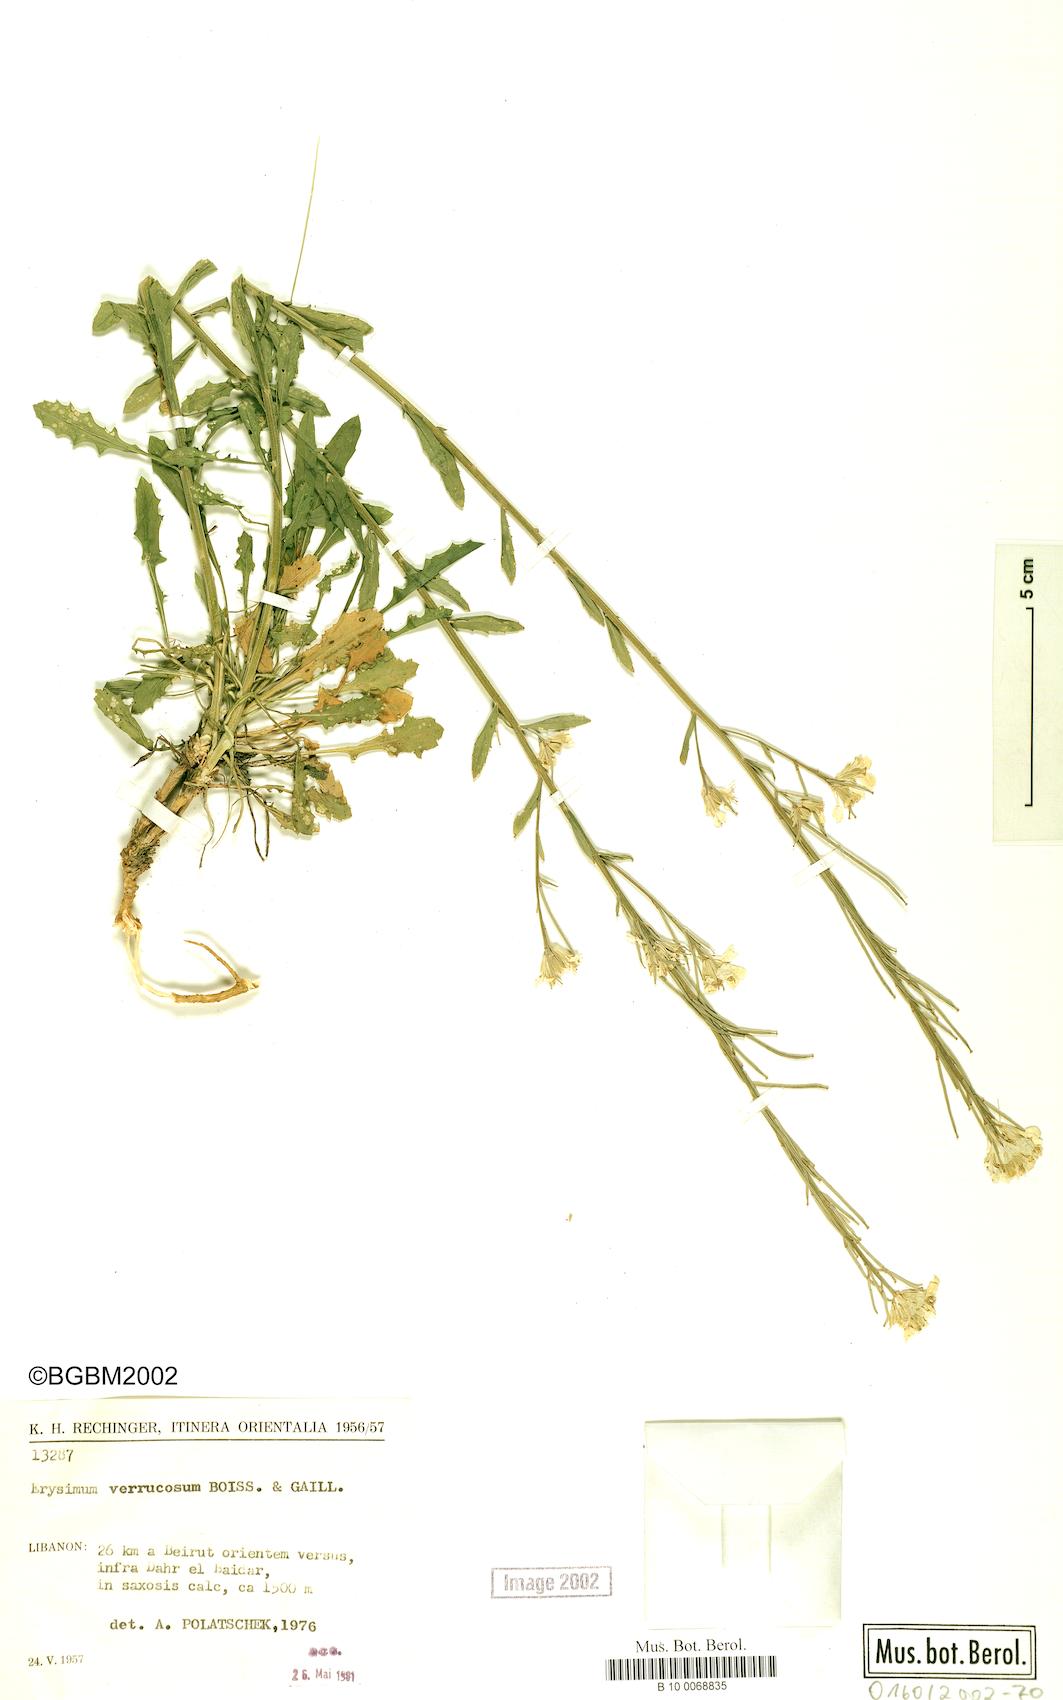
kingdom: Plantae
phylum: Tracheophyta
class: Magnoliopsida
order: Brassicales
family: Brassicaceae
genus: Erysimum
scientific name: Erysimum verrucosum
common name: Warty erysimum
